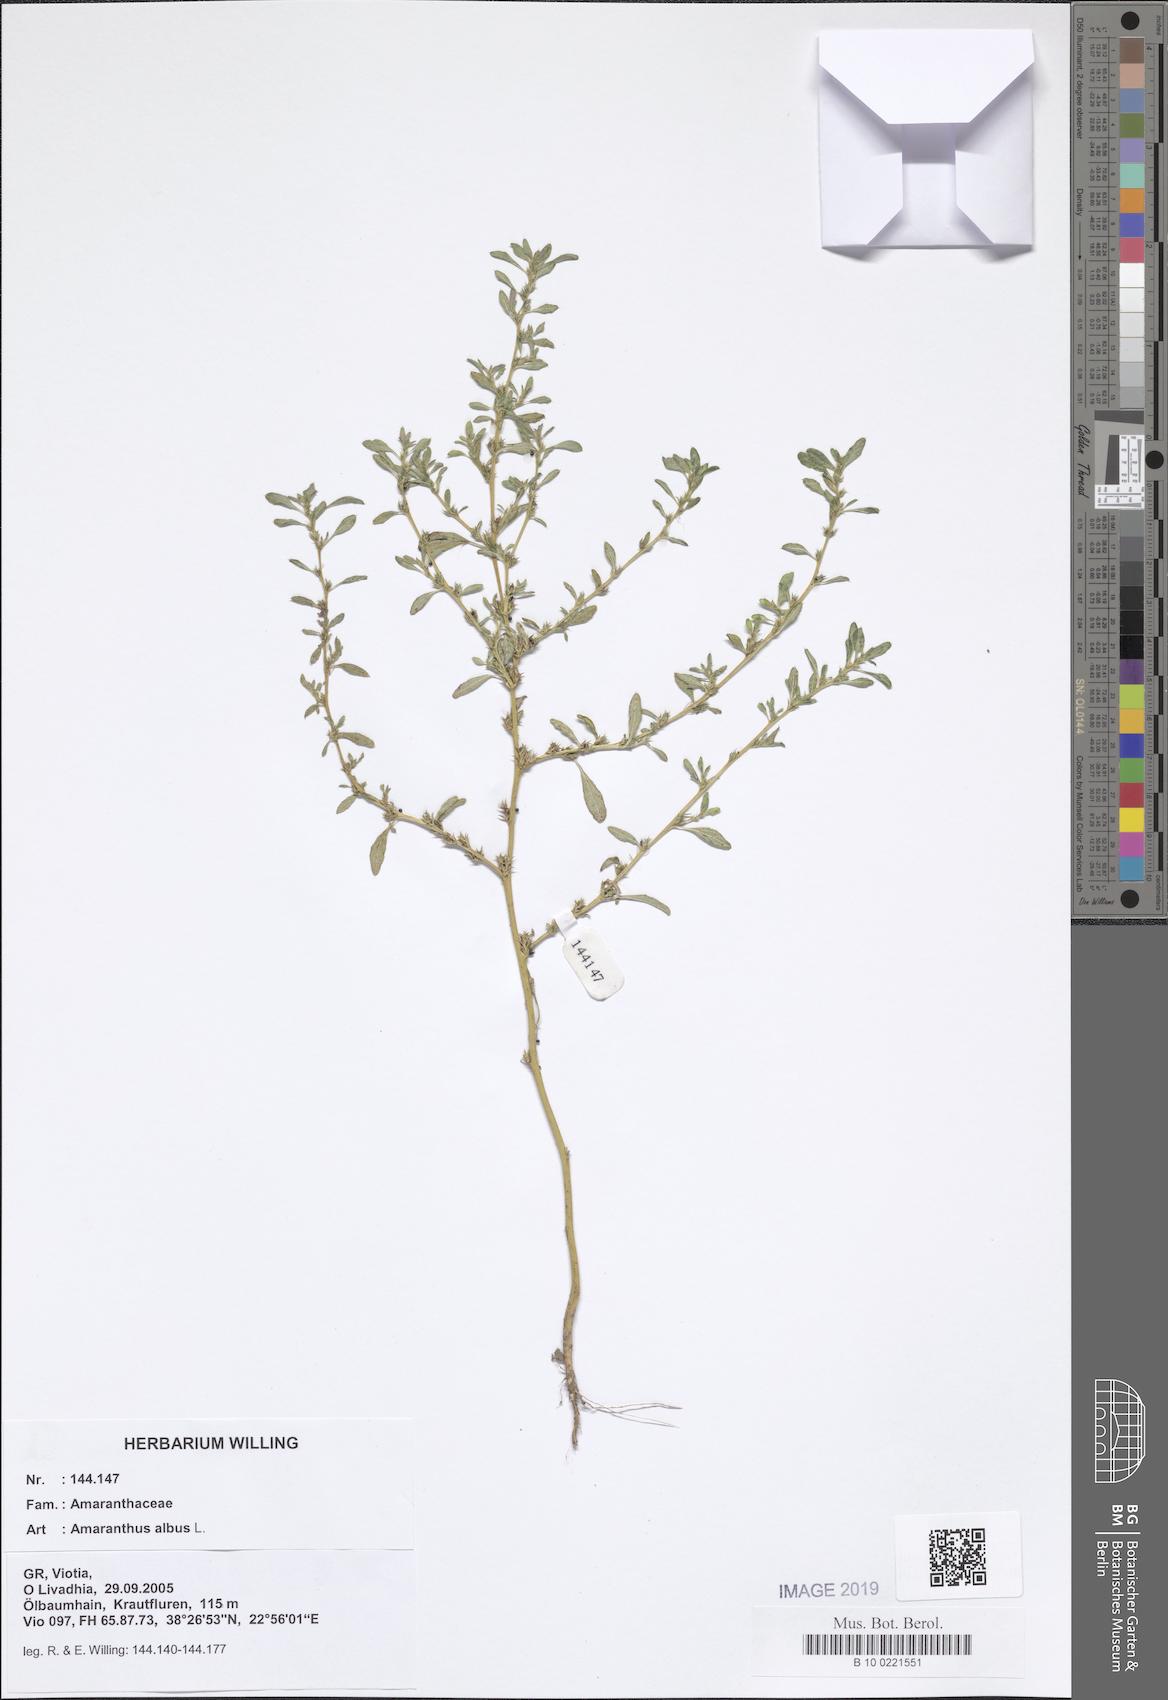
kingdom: Plantae
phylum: Tracheophyta
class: Magnoliopsida
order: Caryophyllales
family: Amaranthaceae
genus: Amaranthus
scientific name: Amaranthus albus
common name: White pigweed
